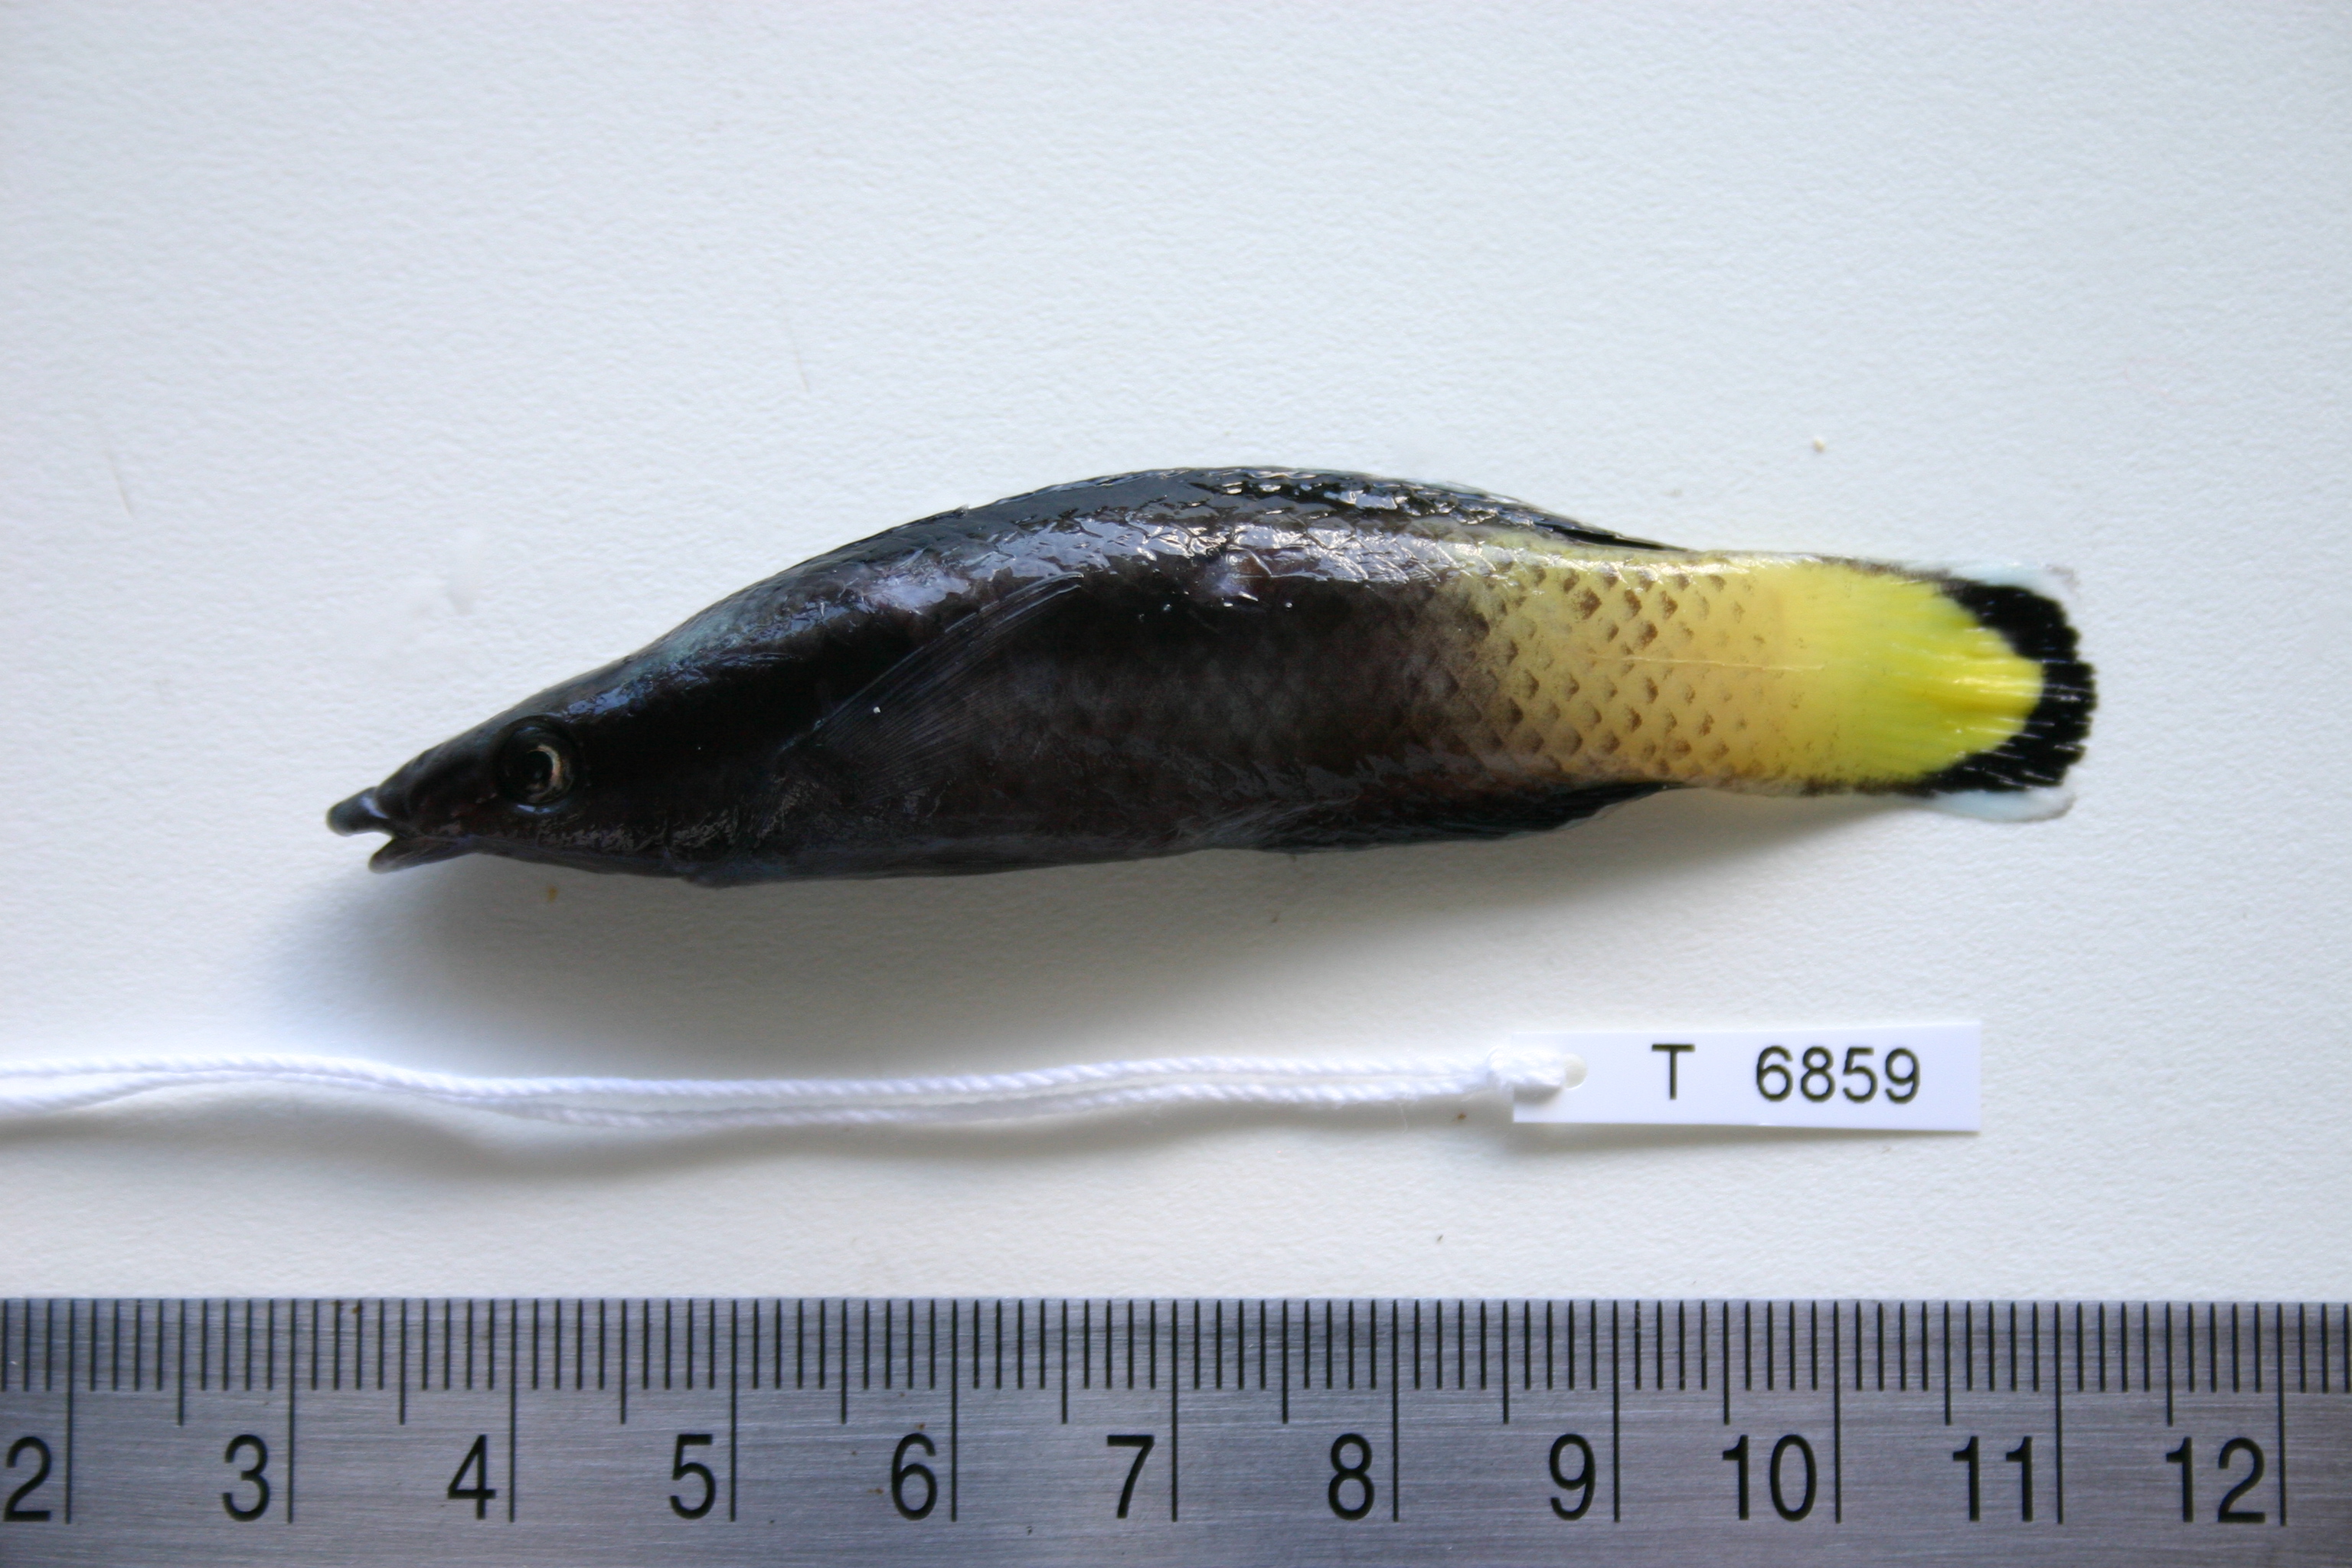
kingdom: Animalia
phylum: Chordata
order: Perciformes
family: Labridae
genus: Labroides
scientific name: Labroides bicolor
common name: Bicolor cleaner wrasse
